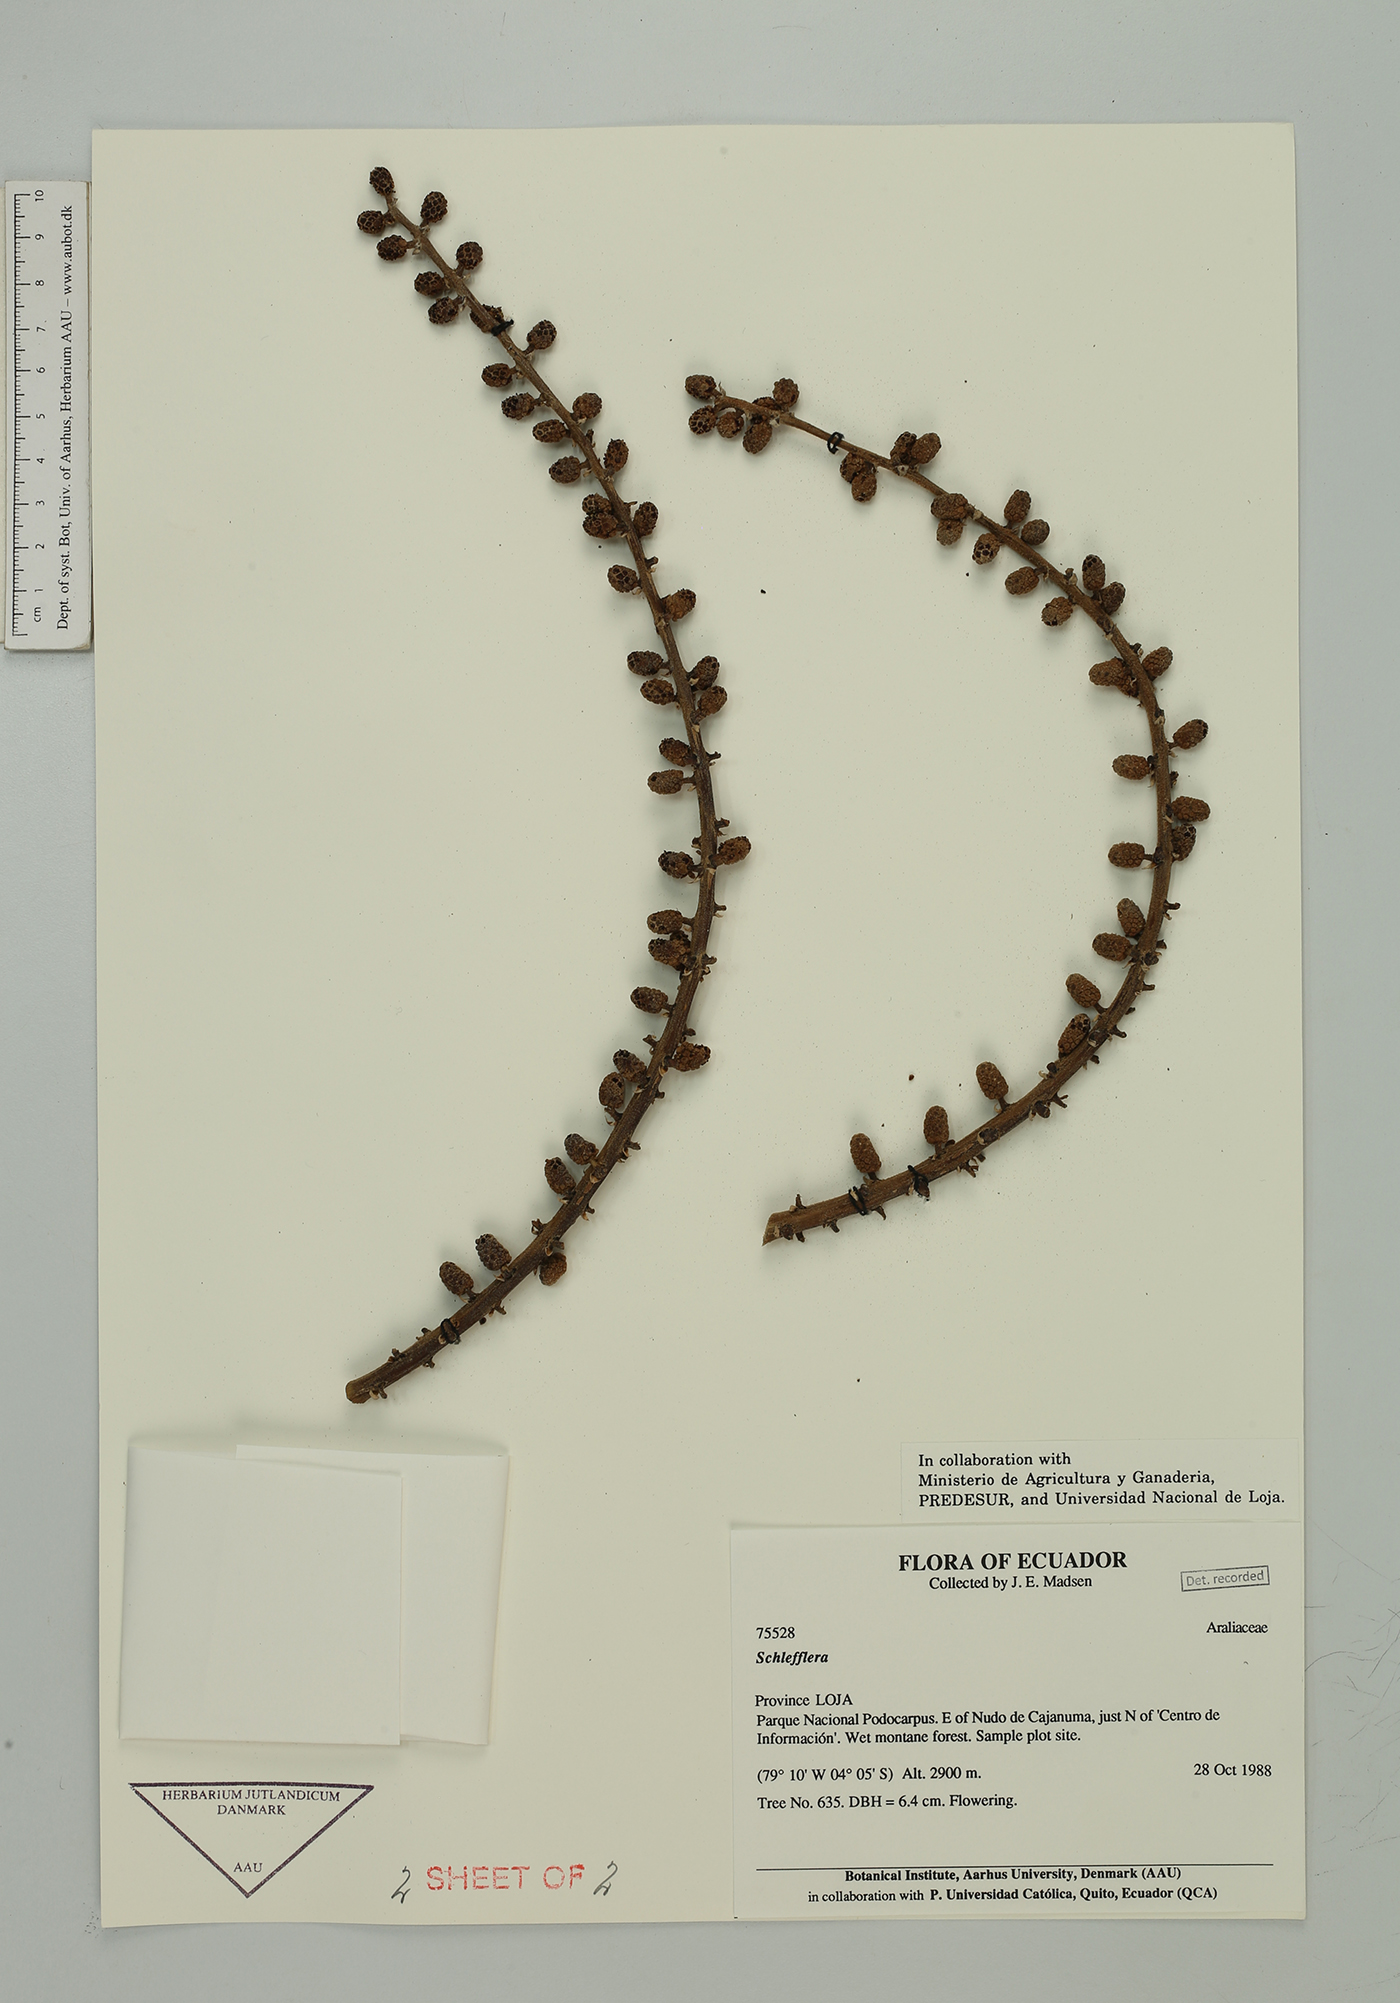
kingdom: Plantae
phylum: Tracheophyta
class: Magnoliopsida
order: Apiales
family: Araliaceae
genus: Sciodaphyllum
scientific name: Sciodaphyllum
